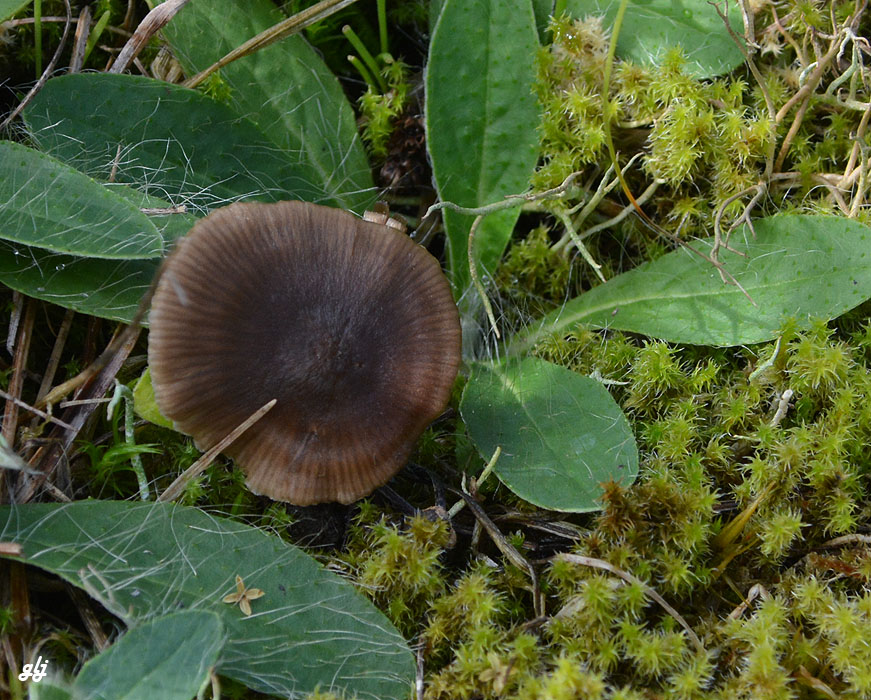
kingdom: Fungi
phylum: Basidiomycota
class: Agaricomycetes
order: Agaricales
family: Entolomataceae
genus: Entoloma
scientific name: Entoloma
